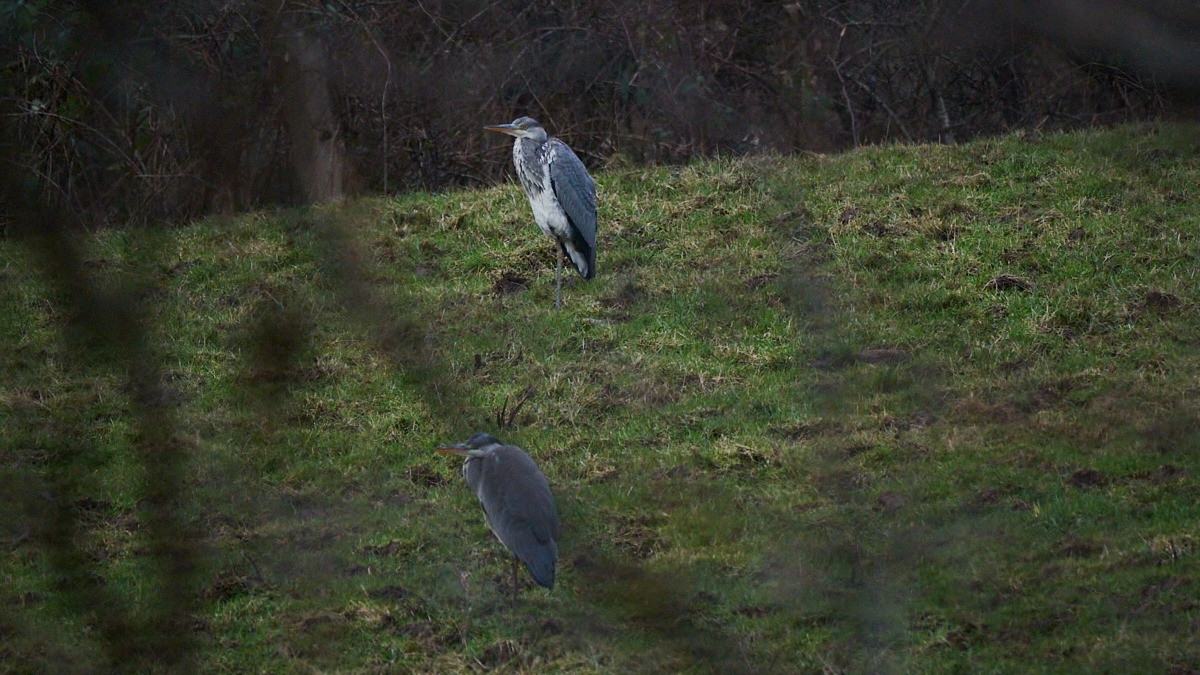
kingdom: Animalia
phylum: Chordata
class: Aves
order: Pelecaniformes
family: Ardeidae
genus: Ardea
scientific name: Ardea cinerea
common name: Fiskehejre
